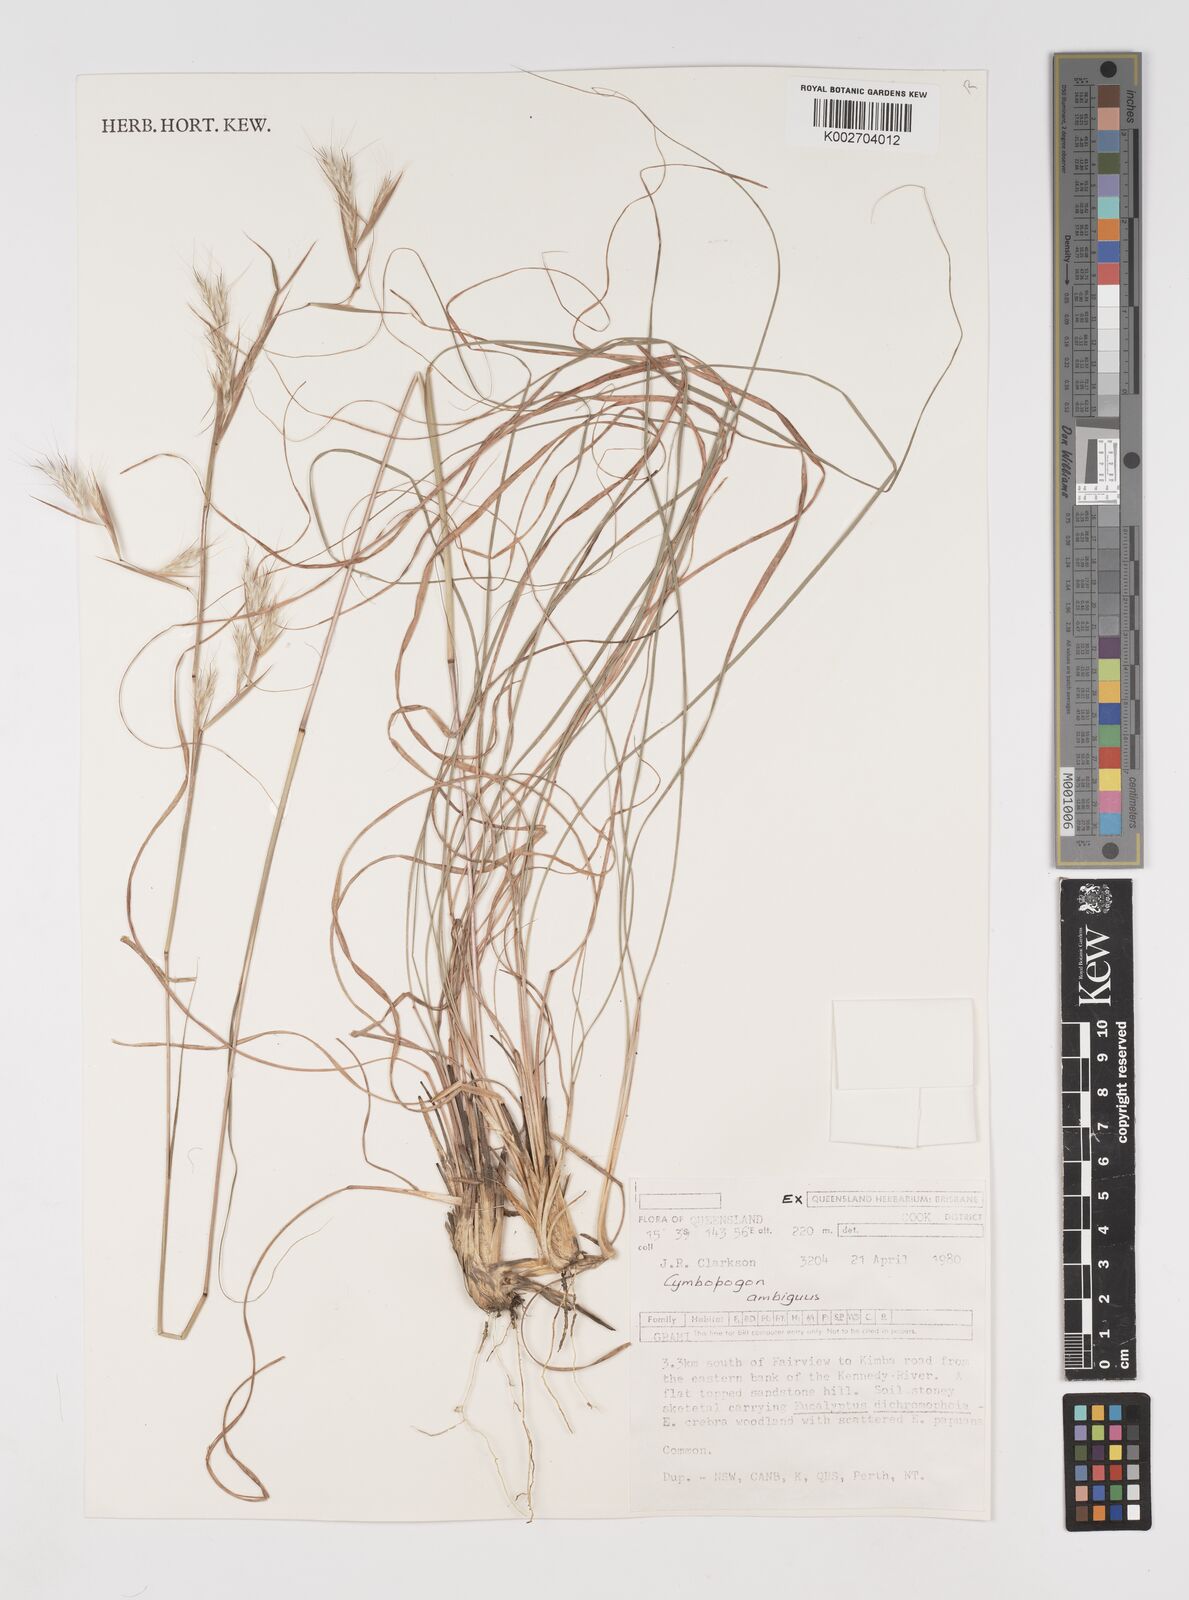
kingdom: Plantae
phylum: Tracheophyta
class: Liliopsida
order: Poales
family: Poaceae
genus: Cymbopogon
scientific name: Cymbopogon ambiguus
